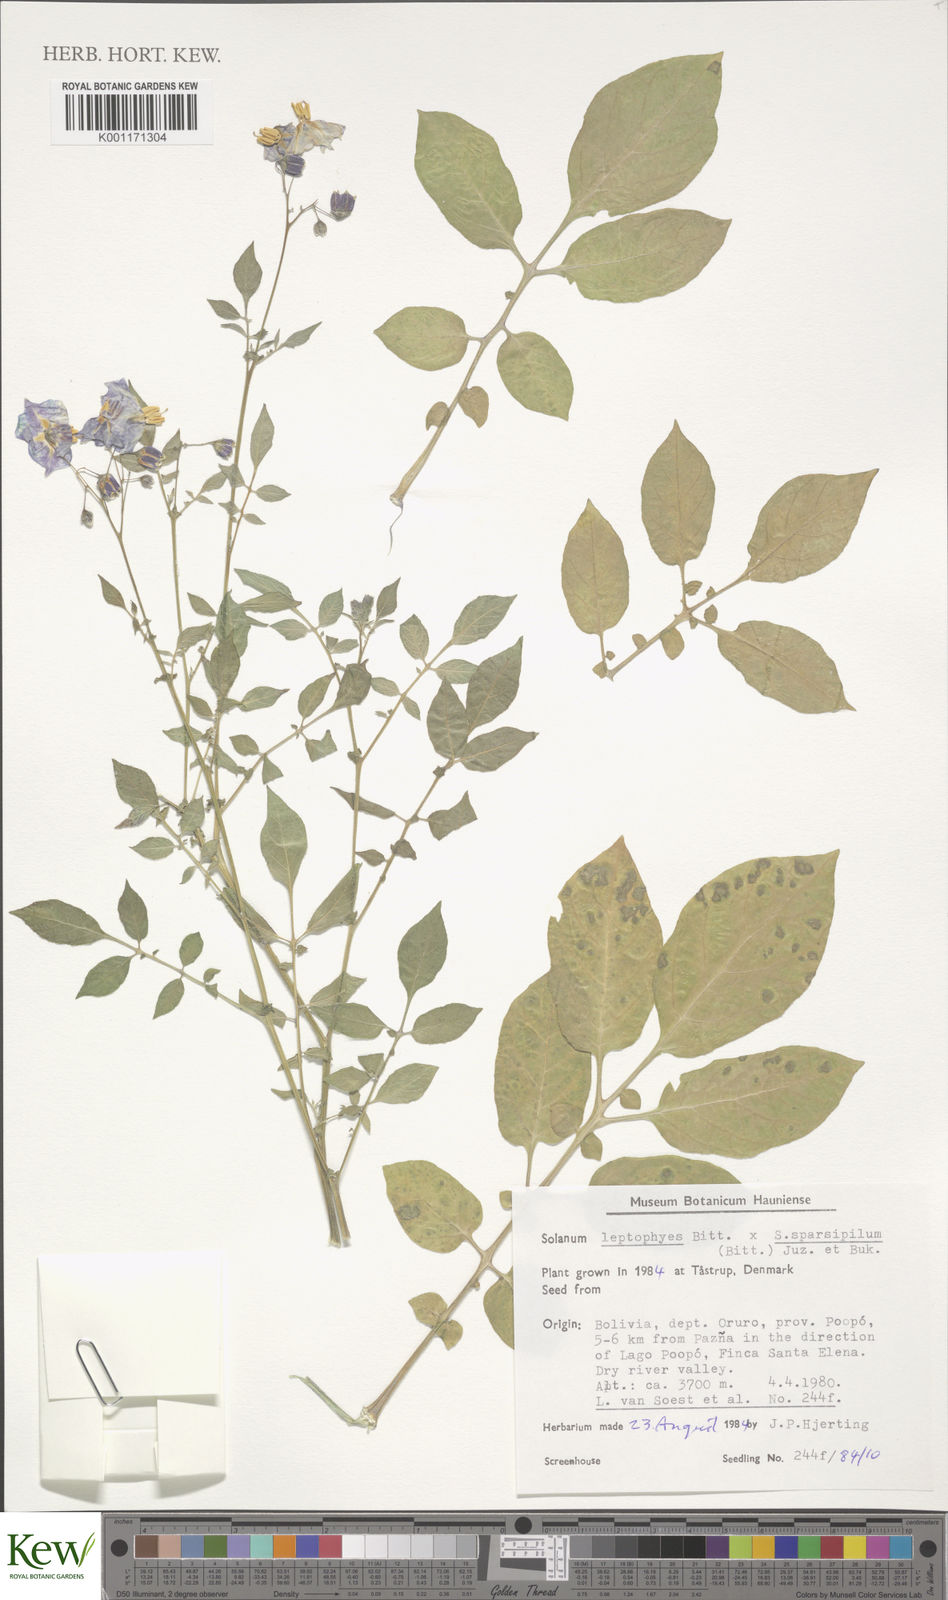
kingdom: Plantae
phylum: Tracheophyta
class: Magnoliopsida
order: Solanales
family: Solanaceae
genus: Solanum
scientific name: Solanum brevicaule
